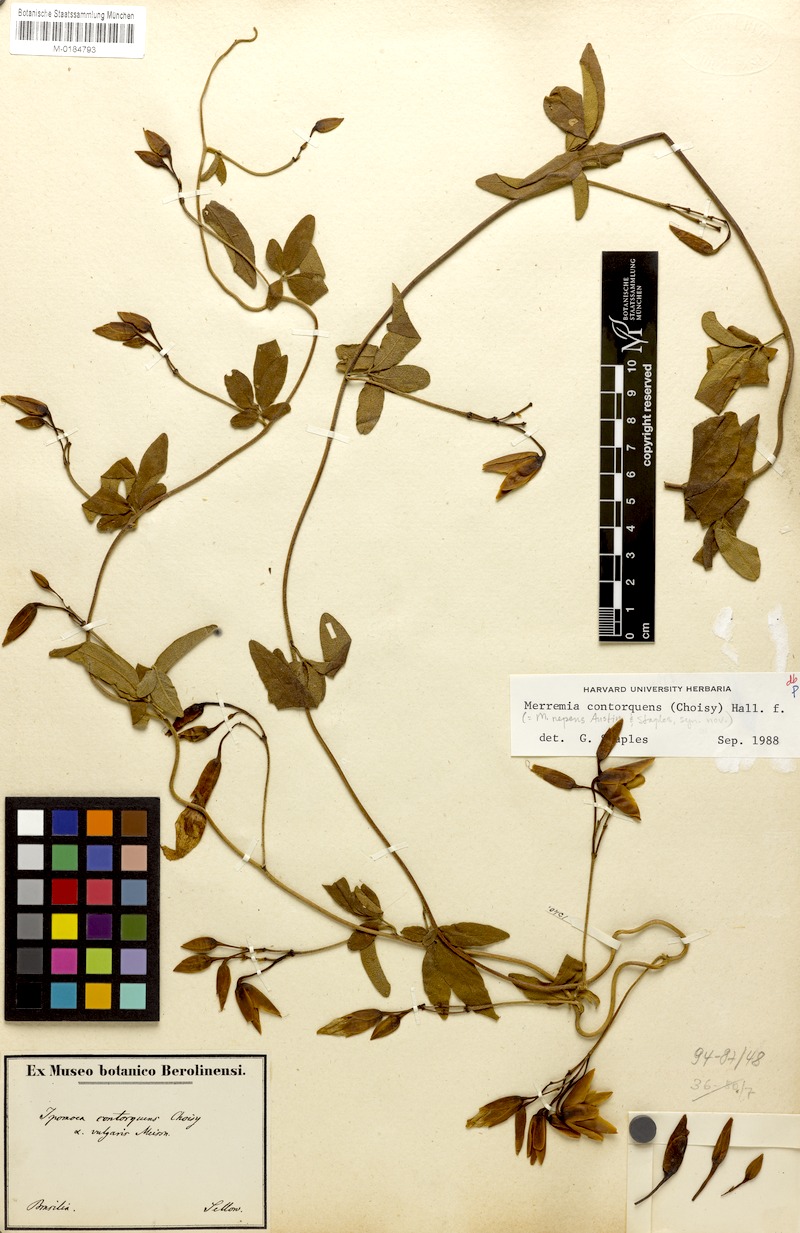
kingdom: Plantae
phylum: Tracheophyta
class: Magnoliopsida
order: Solanales
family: Convolvulaceae
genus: Distimake
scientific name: Distimake contorquens
